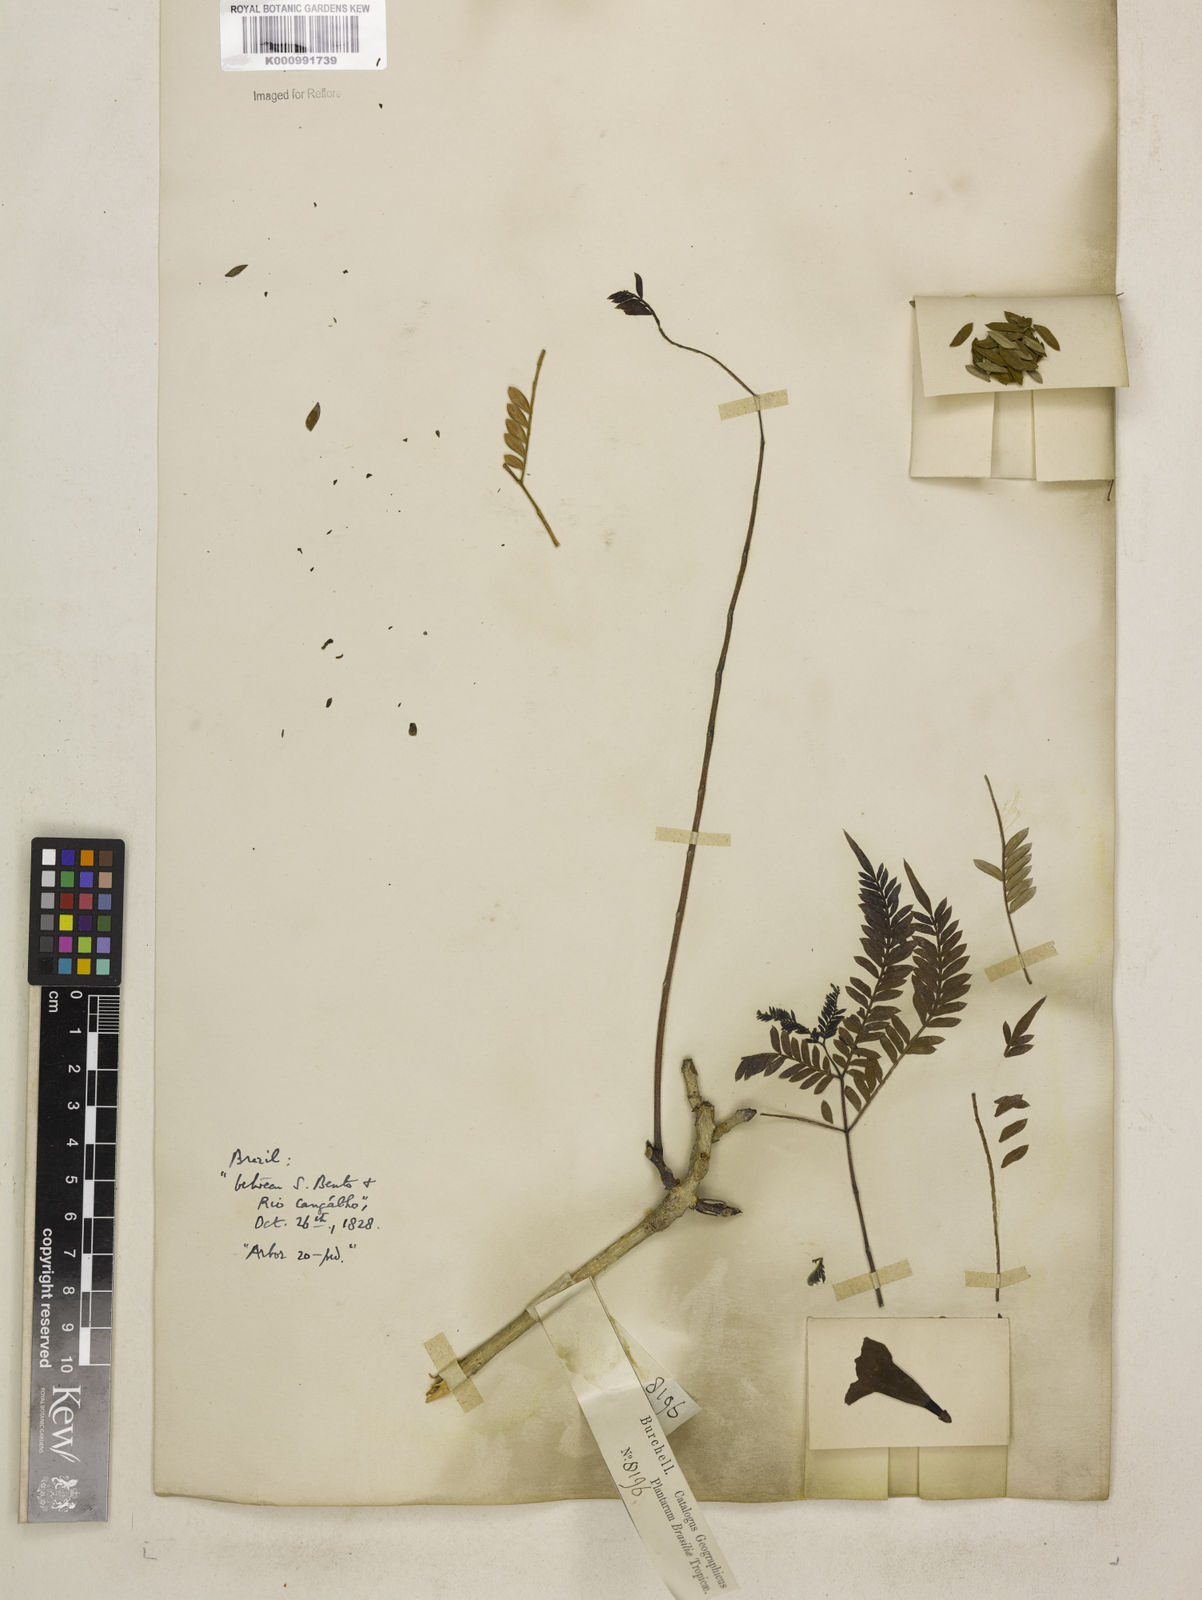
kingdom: Plantae
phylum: Tracheophyta
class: Magnoliopsida
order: Lamiales
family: Bignoniaceae
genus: Jacaranda
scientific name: Jacaranda brasiliana
